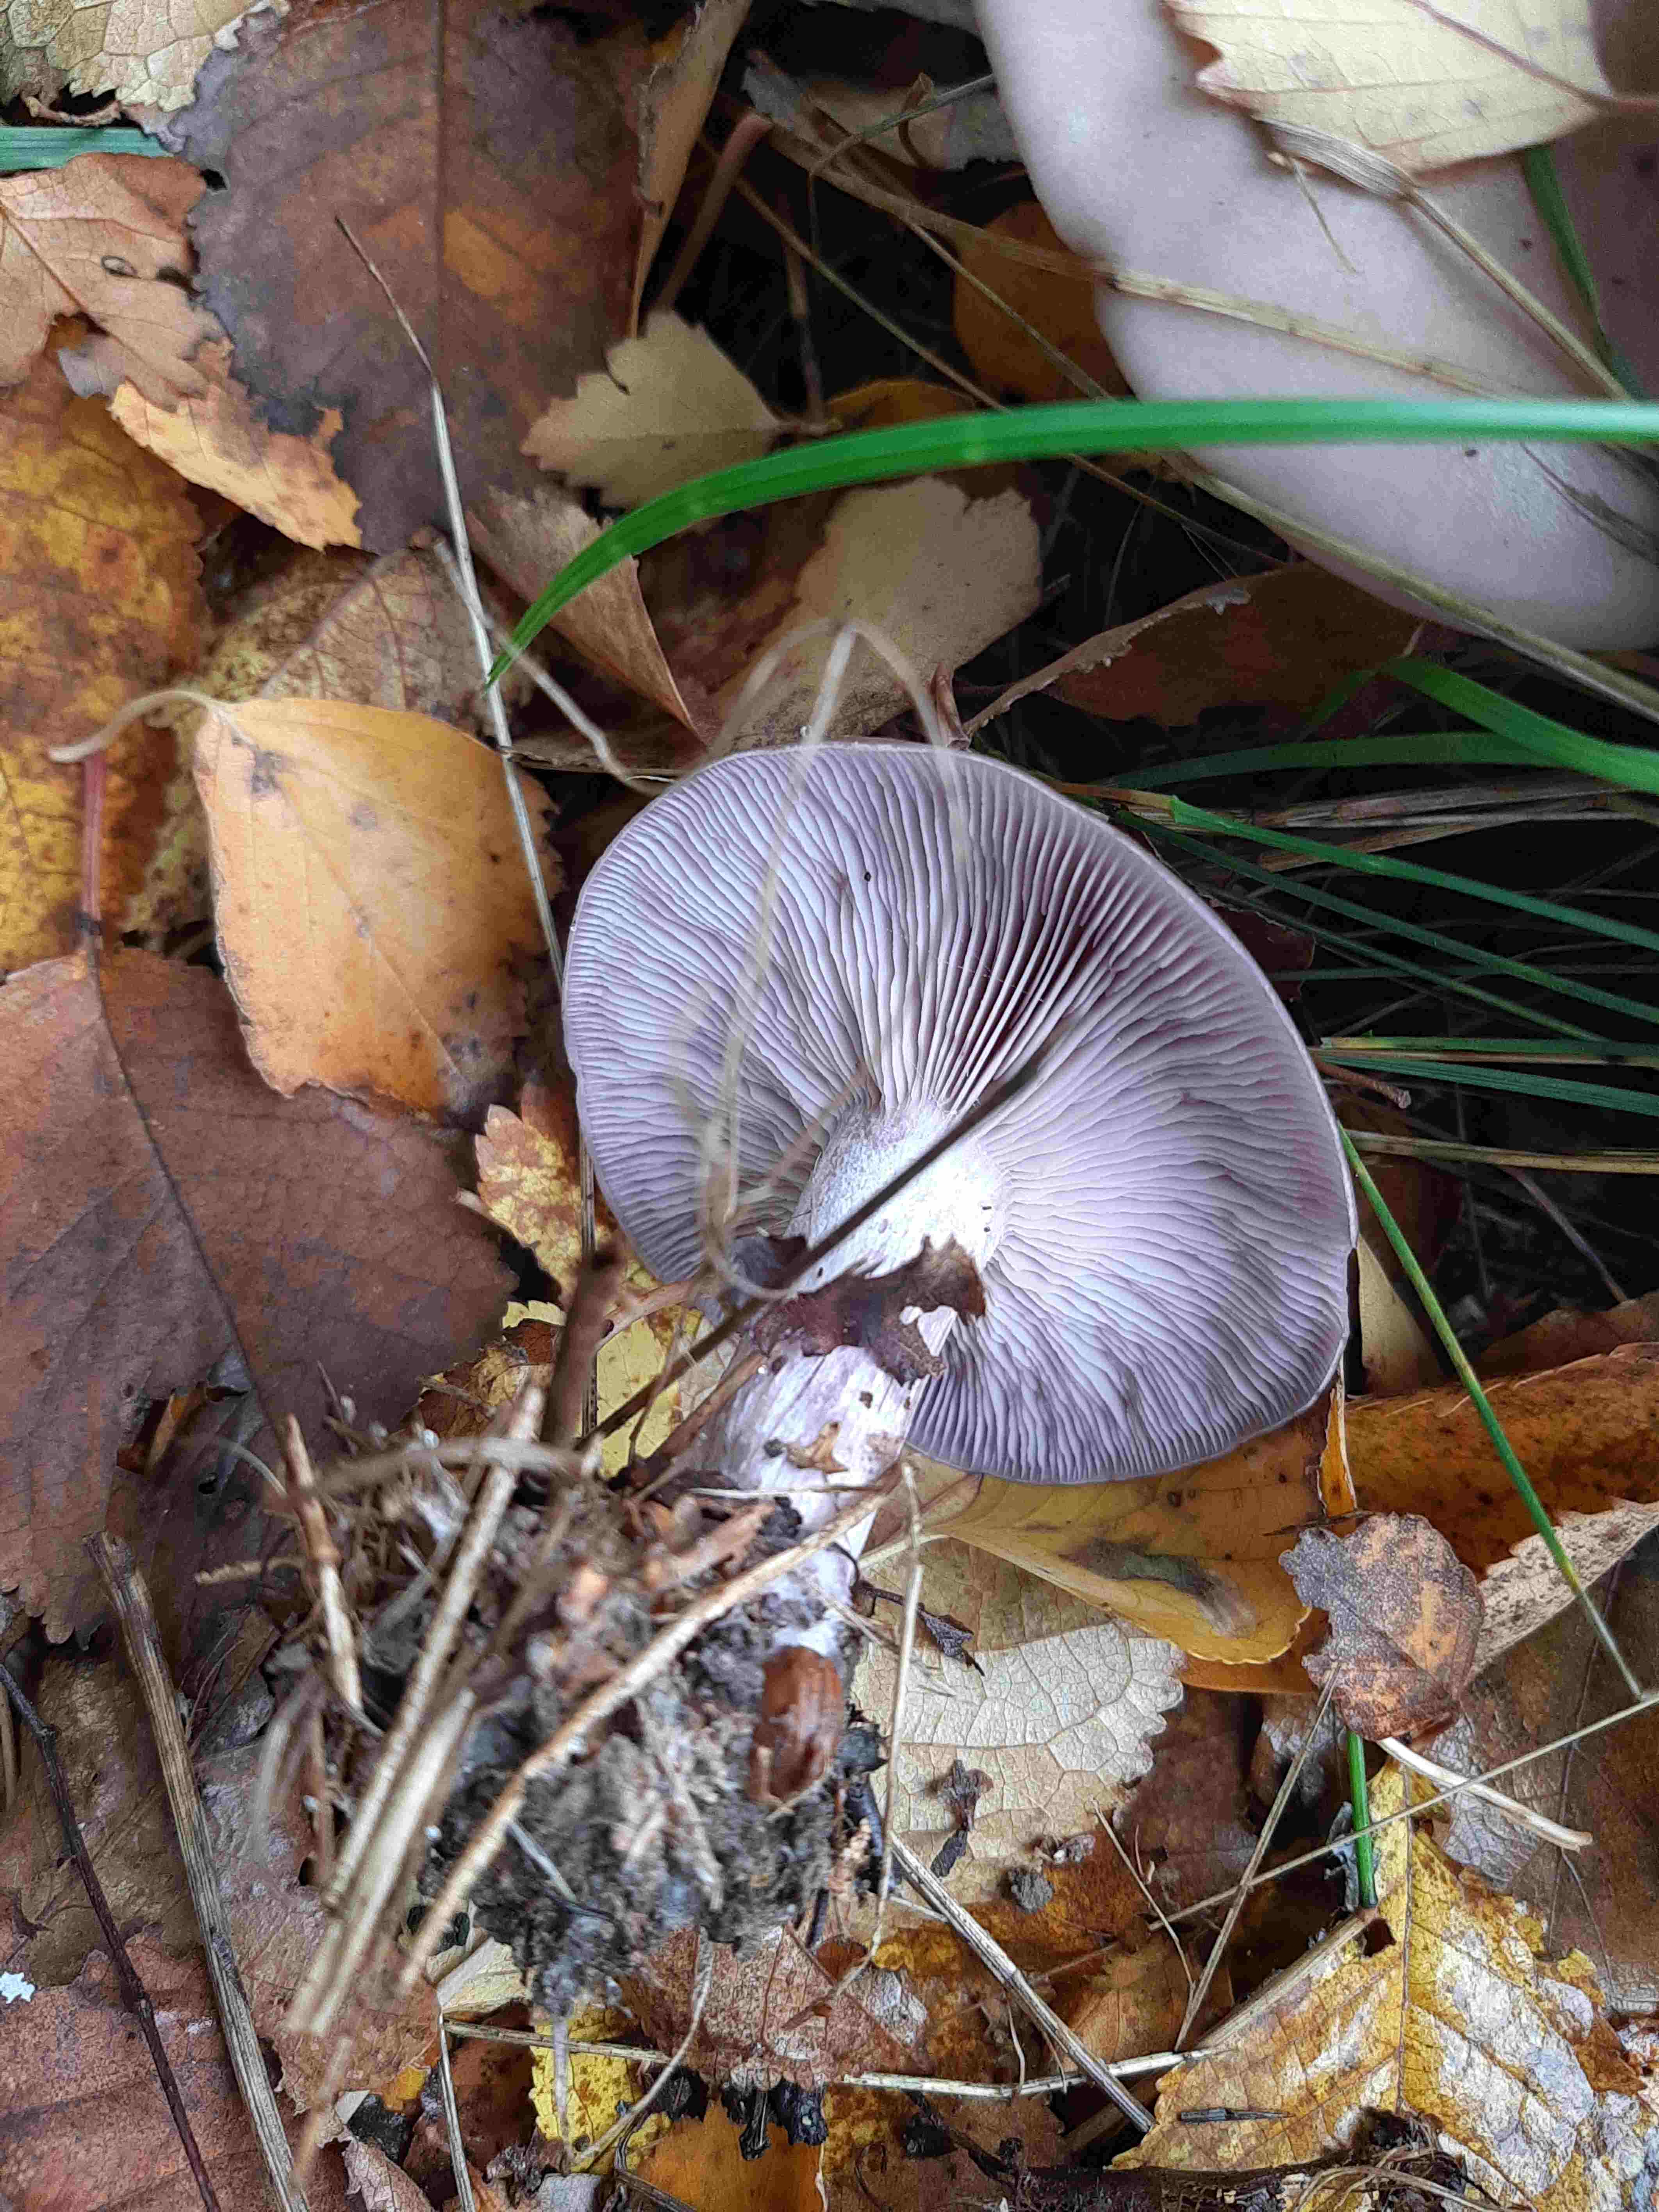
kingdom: Fungi
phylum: Basidiomycota
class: Agaricomycetes
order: Agaricales
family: Tricholomataceae
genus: Lepista
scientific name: Lepista nuda
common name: violet hekseringshat
